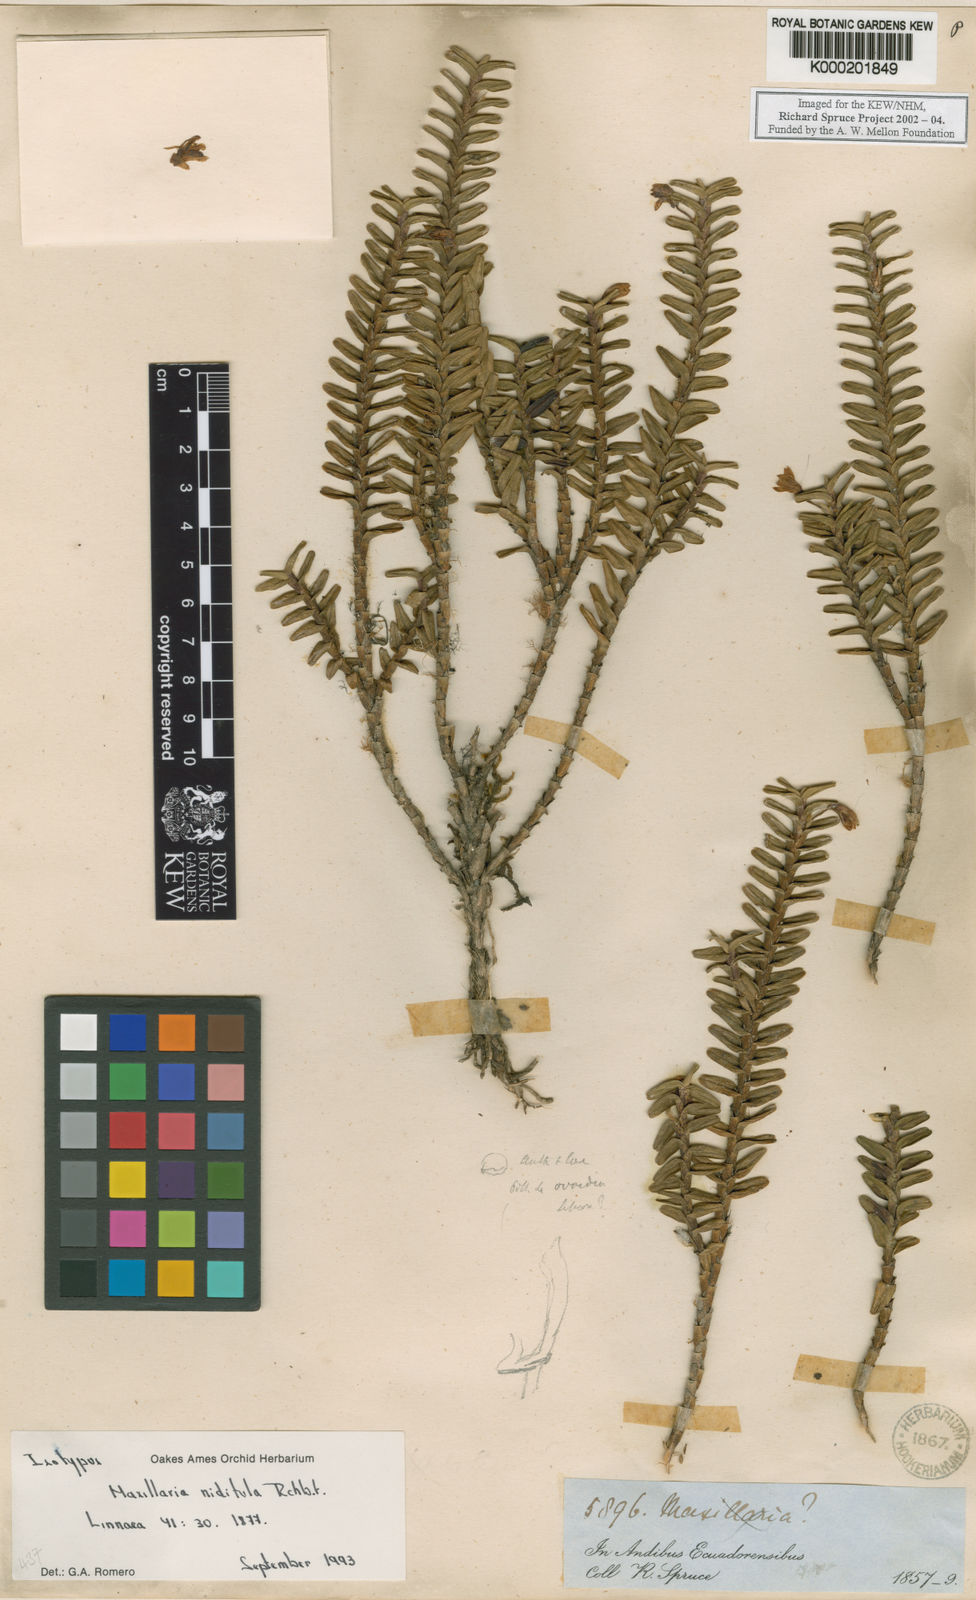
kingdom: Plantae
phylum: Tracheophyta
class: Liliopsida
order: Asparagales
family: Orchidaceae
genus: Maxillaria
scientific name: Maxillaria
